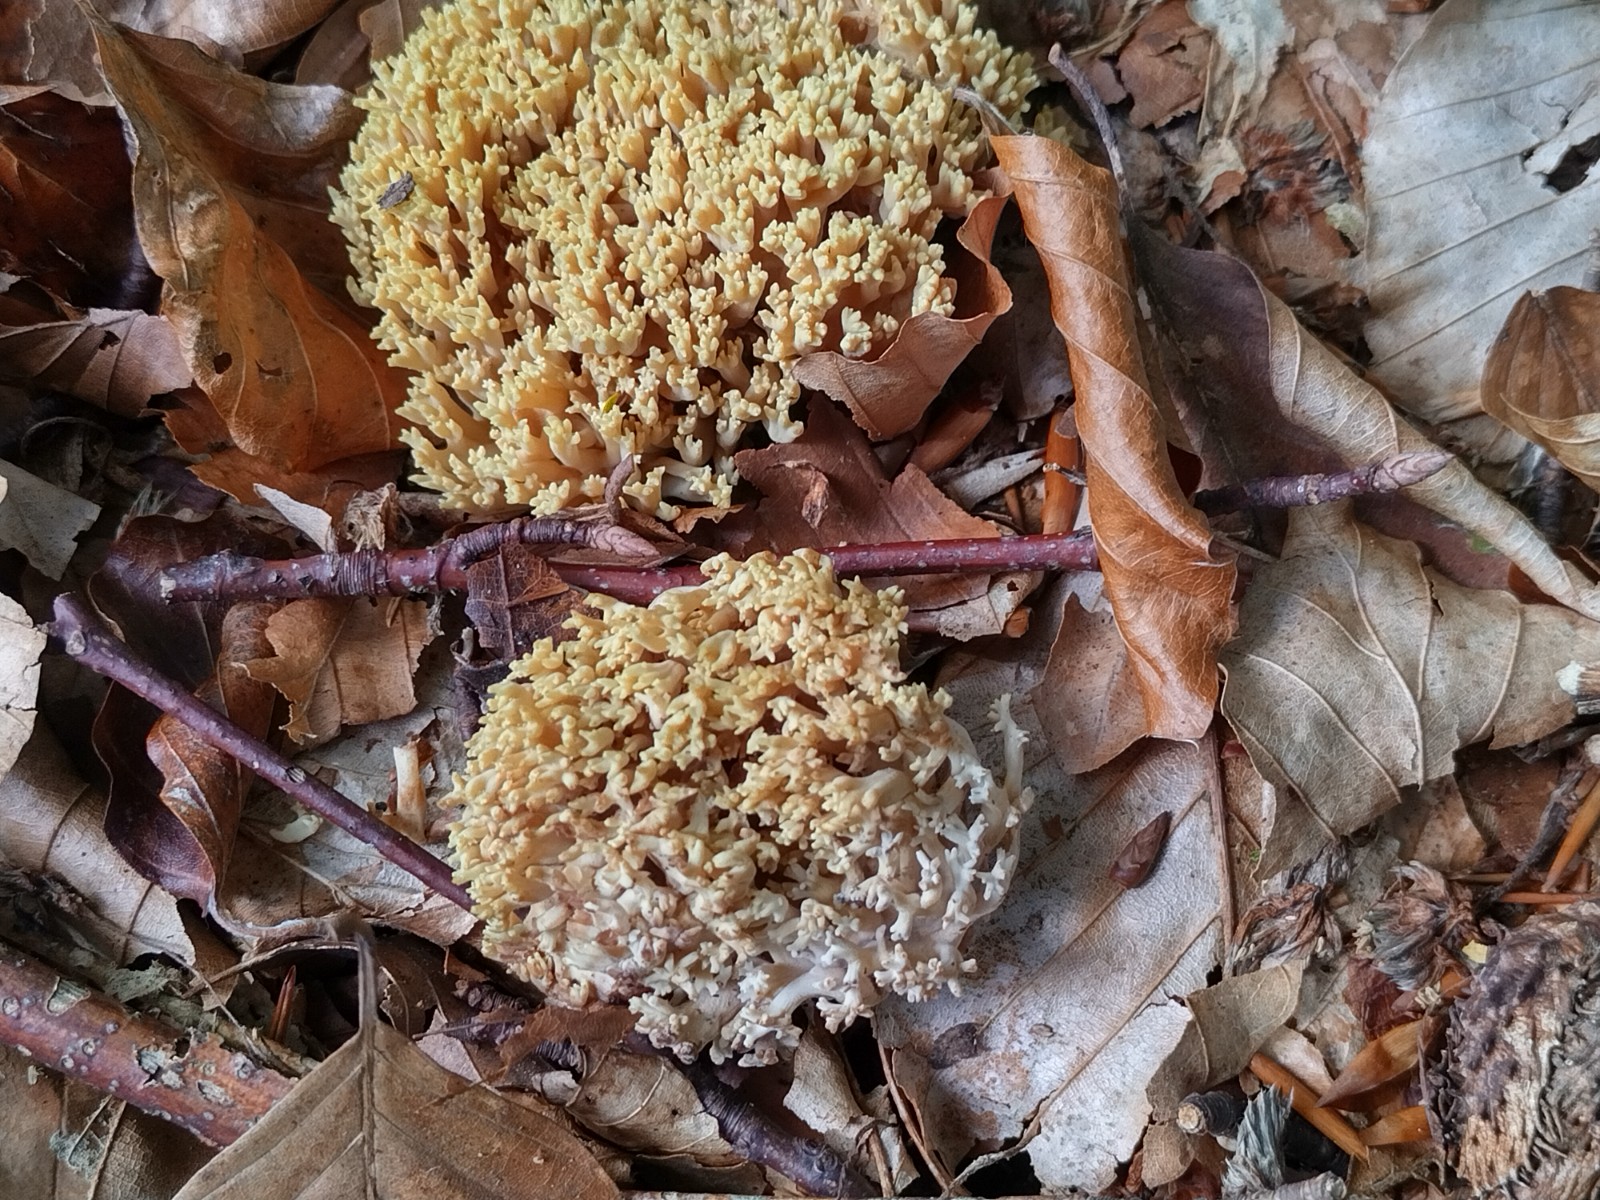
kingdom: Fungi
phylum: Basidiomycota
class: Agaricomycetes
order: Gomphales
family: Gomphaceae
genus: Ramaria
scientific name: Ramaria stricta
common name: rank koralsvamp
